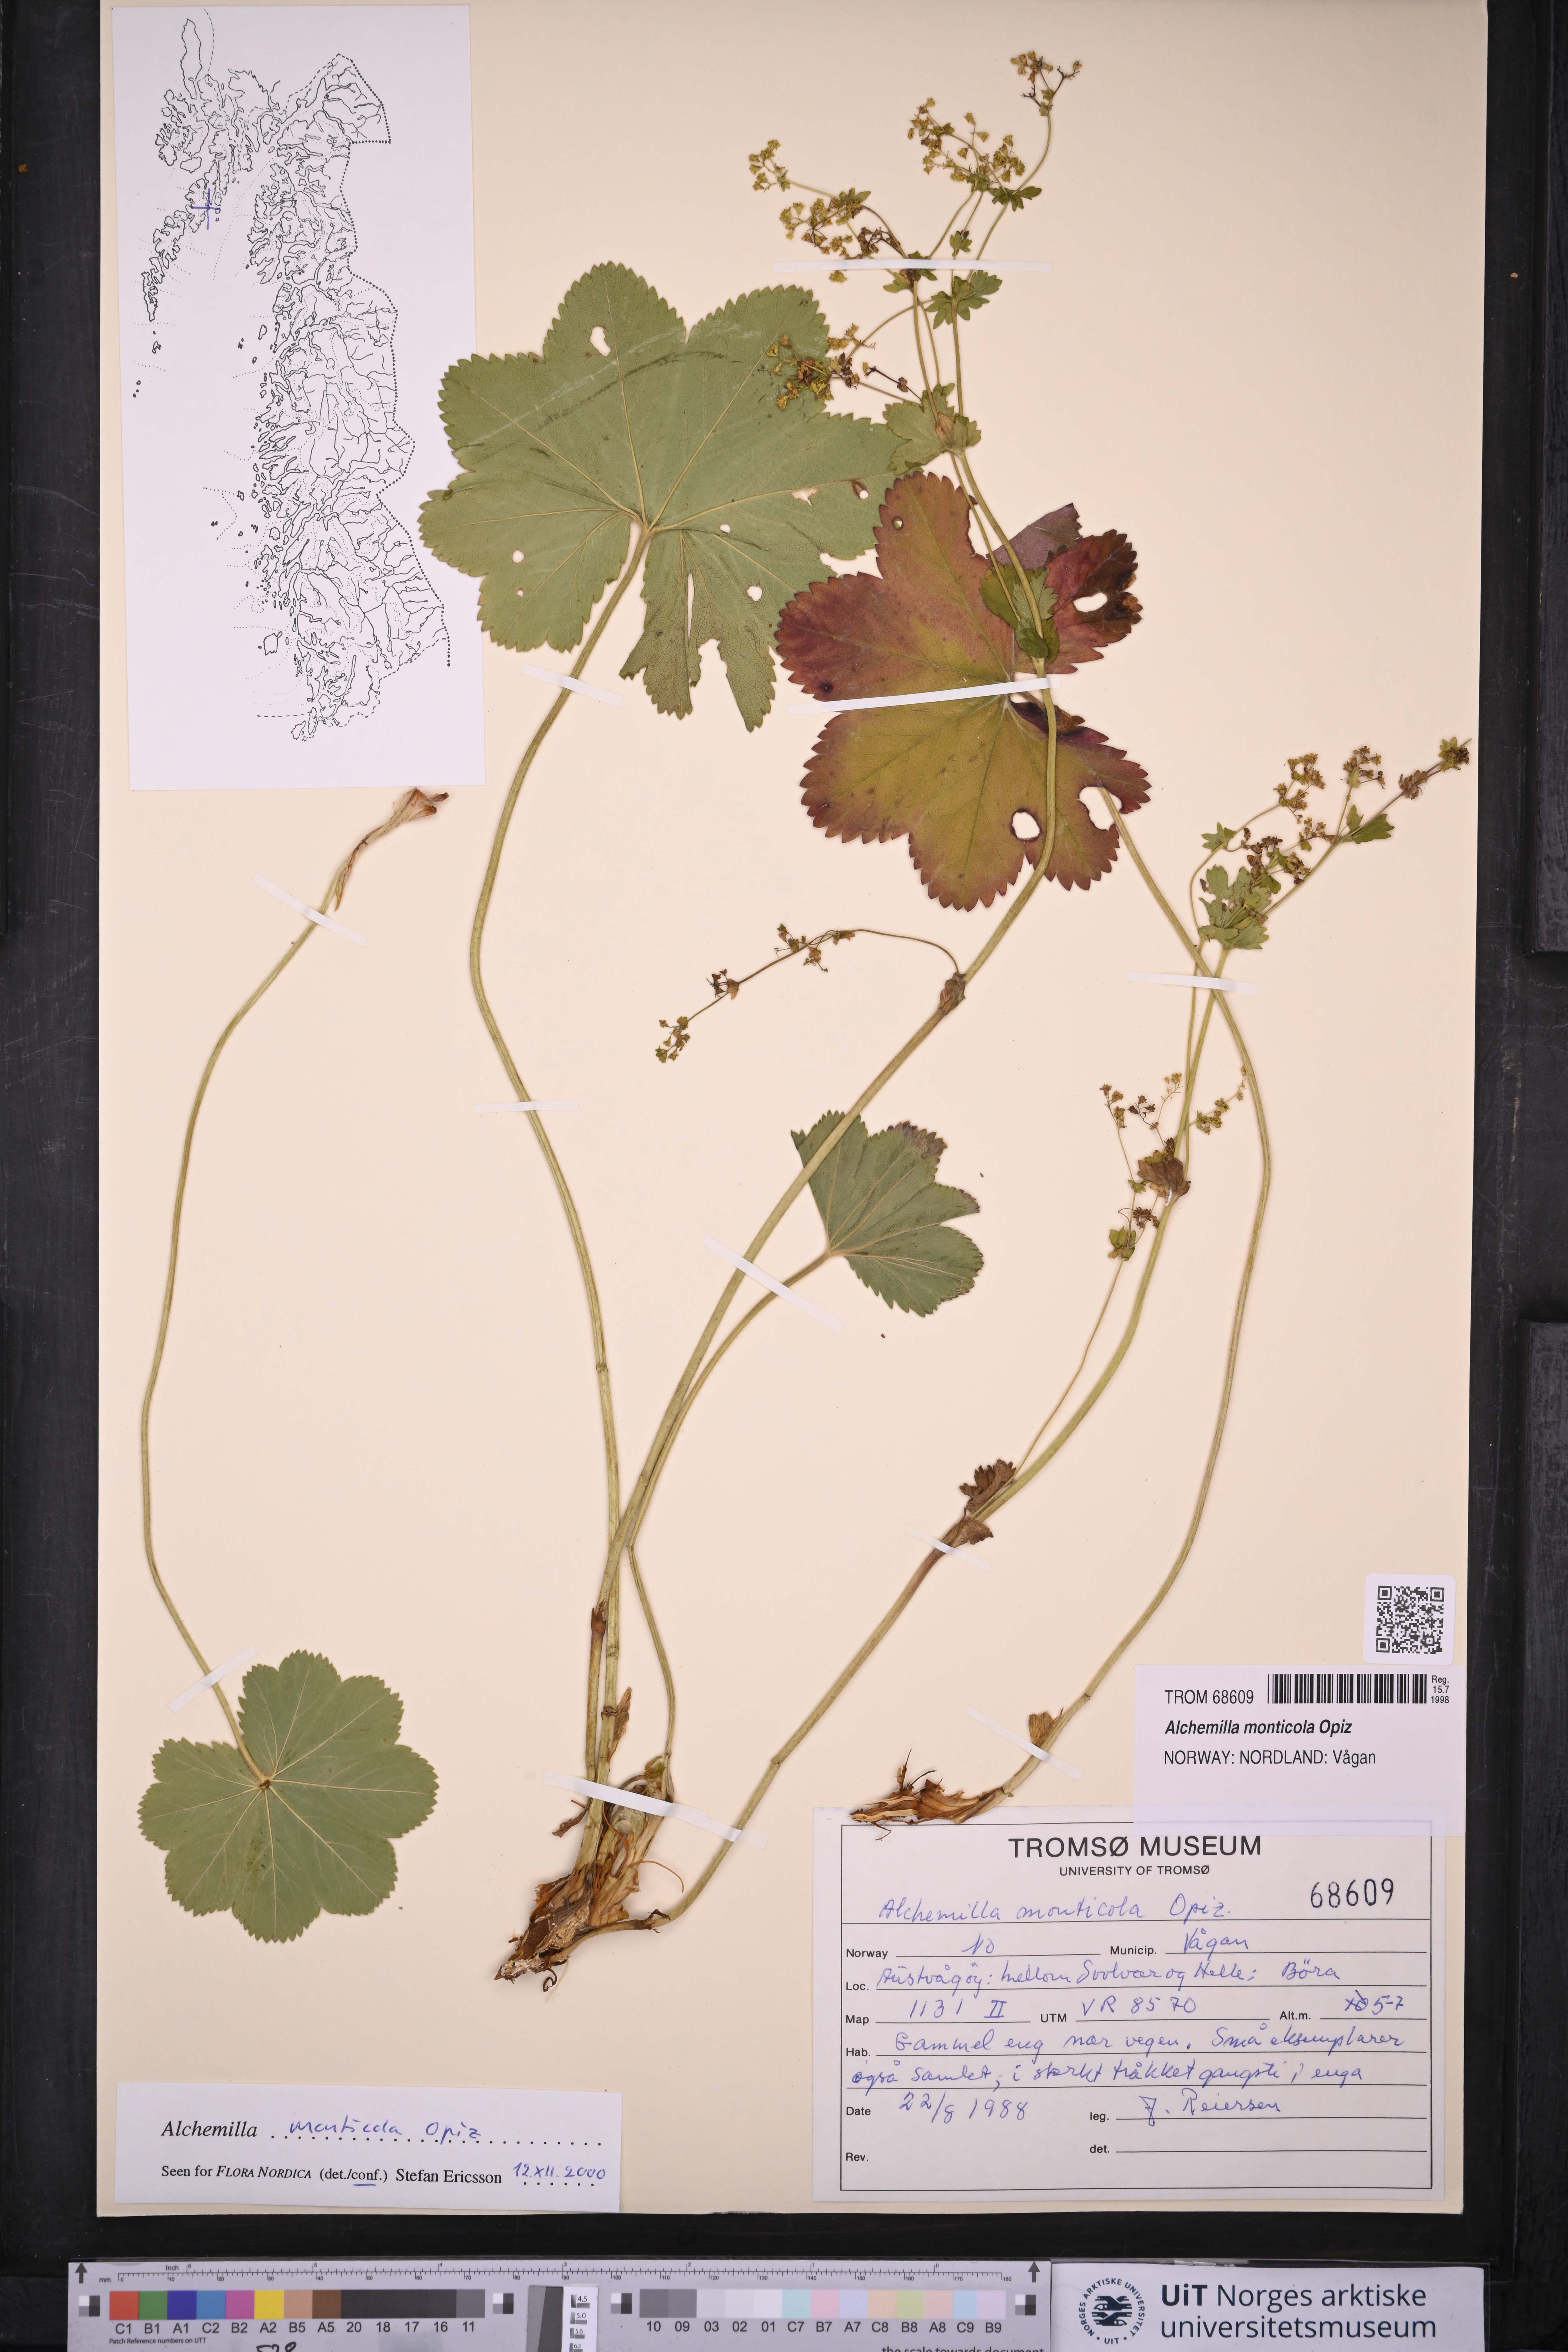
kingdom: Plantae
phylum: Tracheophyta
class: Magnoliopsida
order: Rosales
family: Rosaceae
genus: Alchemilla
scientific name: Alchemilla monticola
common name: Hairy lady's mantle
